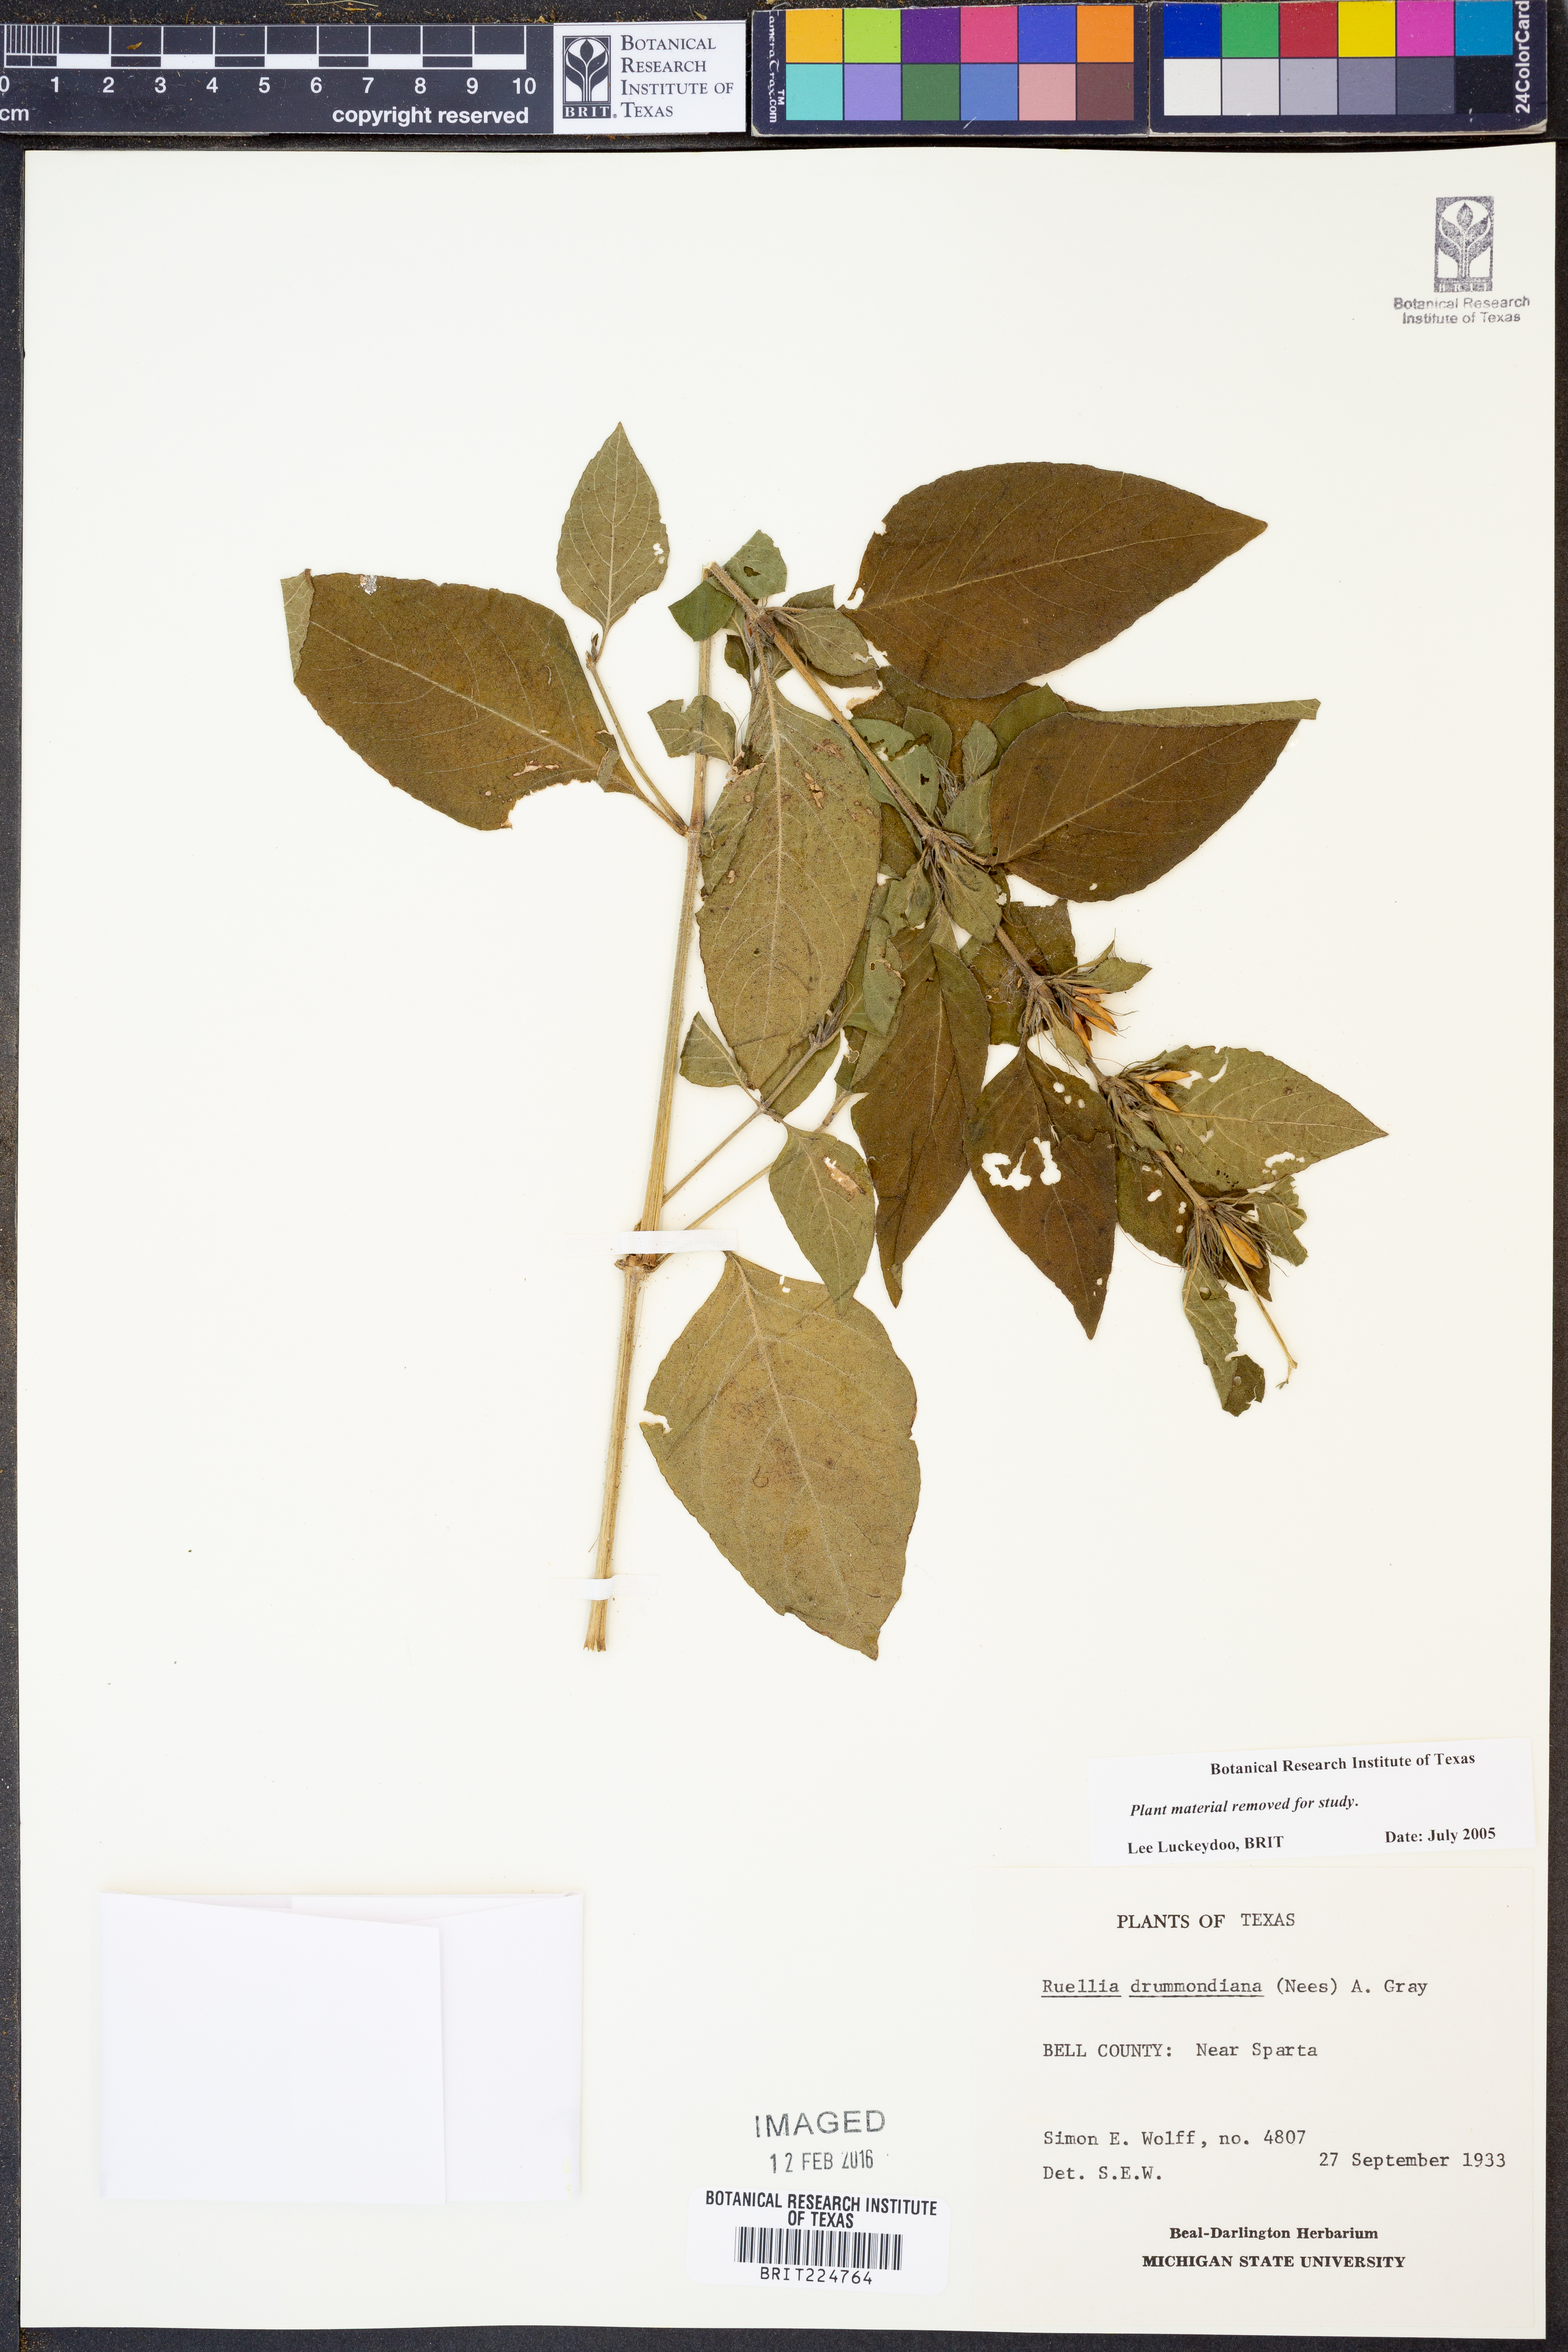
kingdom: Plantae
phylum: Tracheophyta
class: Magnoliopsida
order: Lamiales
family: Acanthaceae
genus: Ruellia
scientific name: Ruellia drummondiana
